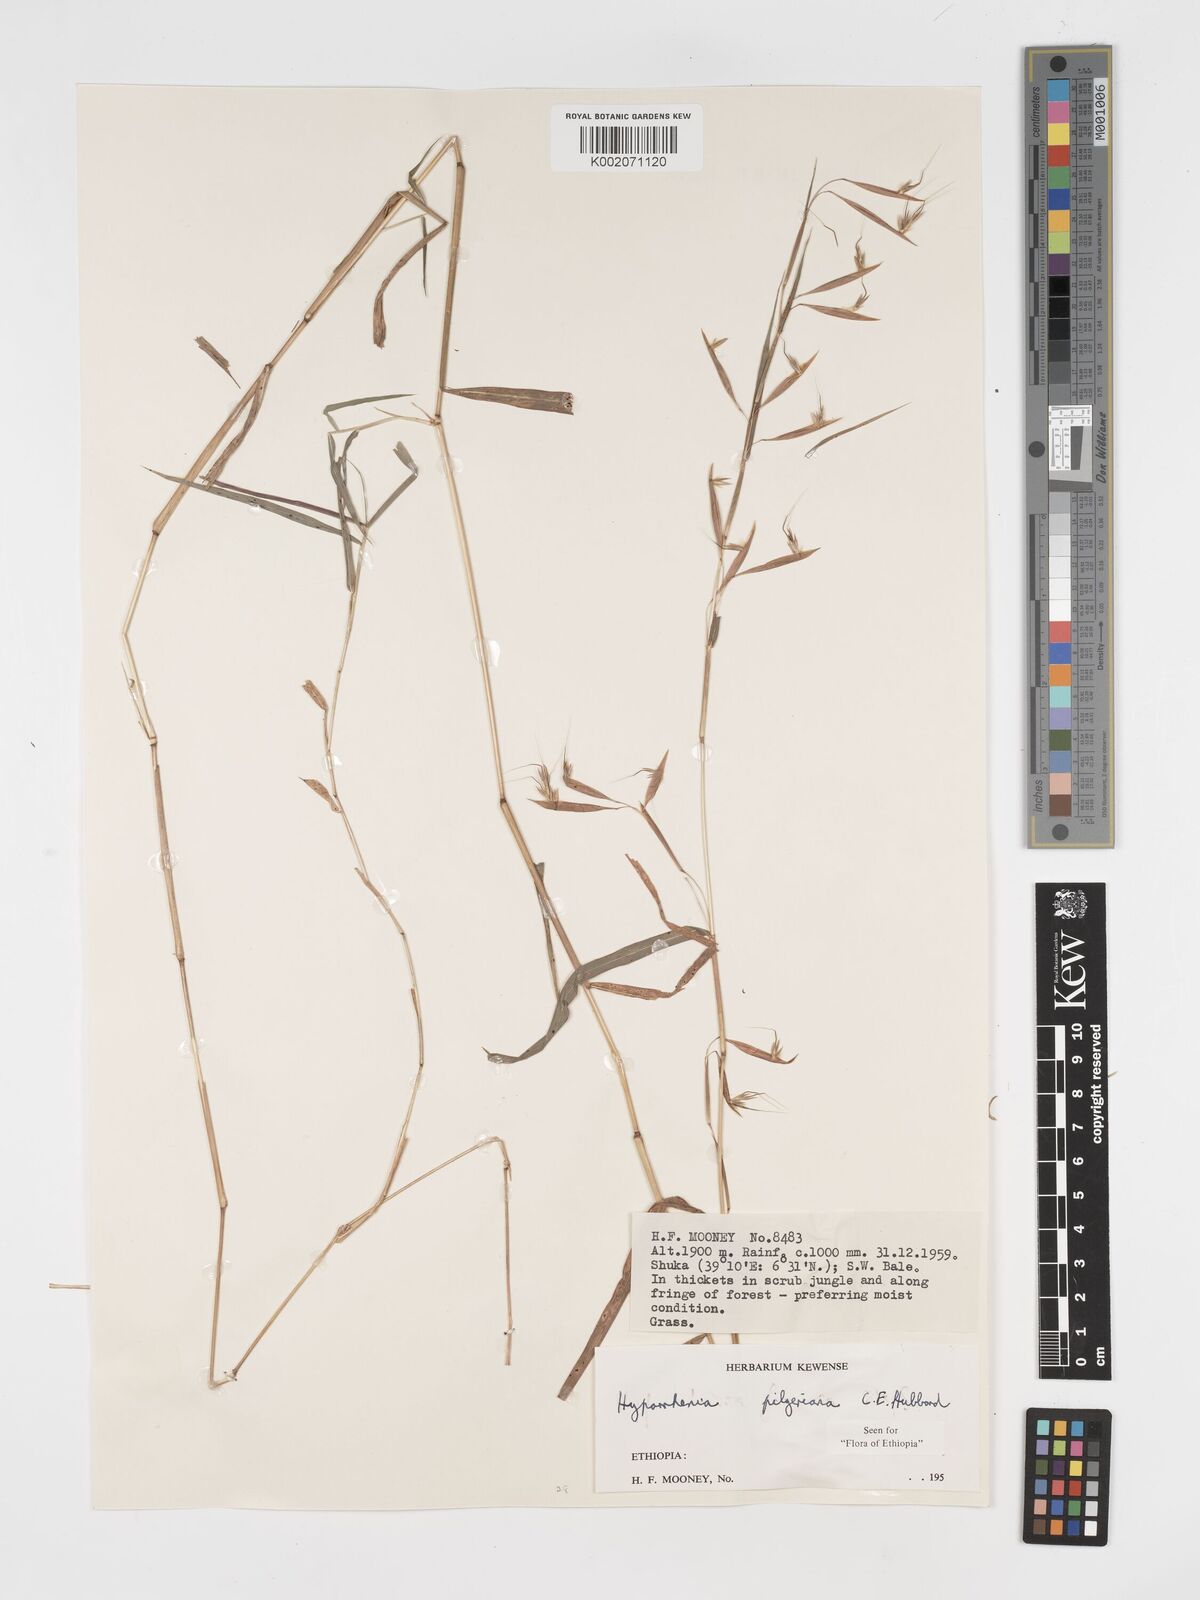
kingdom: Plantae
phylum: Tracheophyta
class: Liliopsida
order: Poales
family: Poaceae
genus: Hyparrhenia
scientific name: Hyparrhenia pilgeriana
